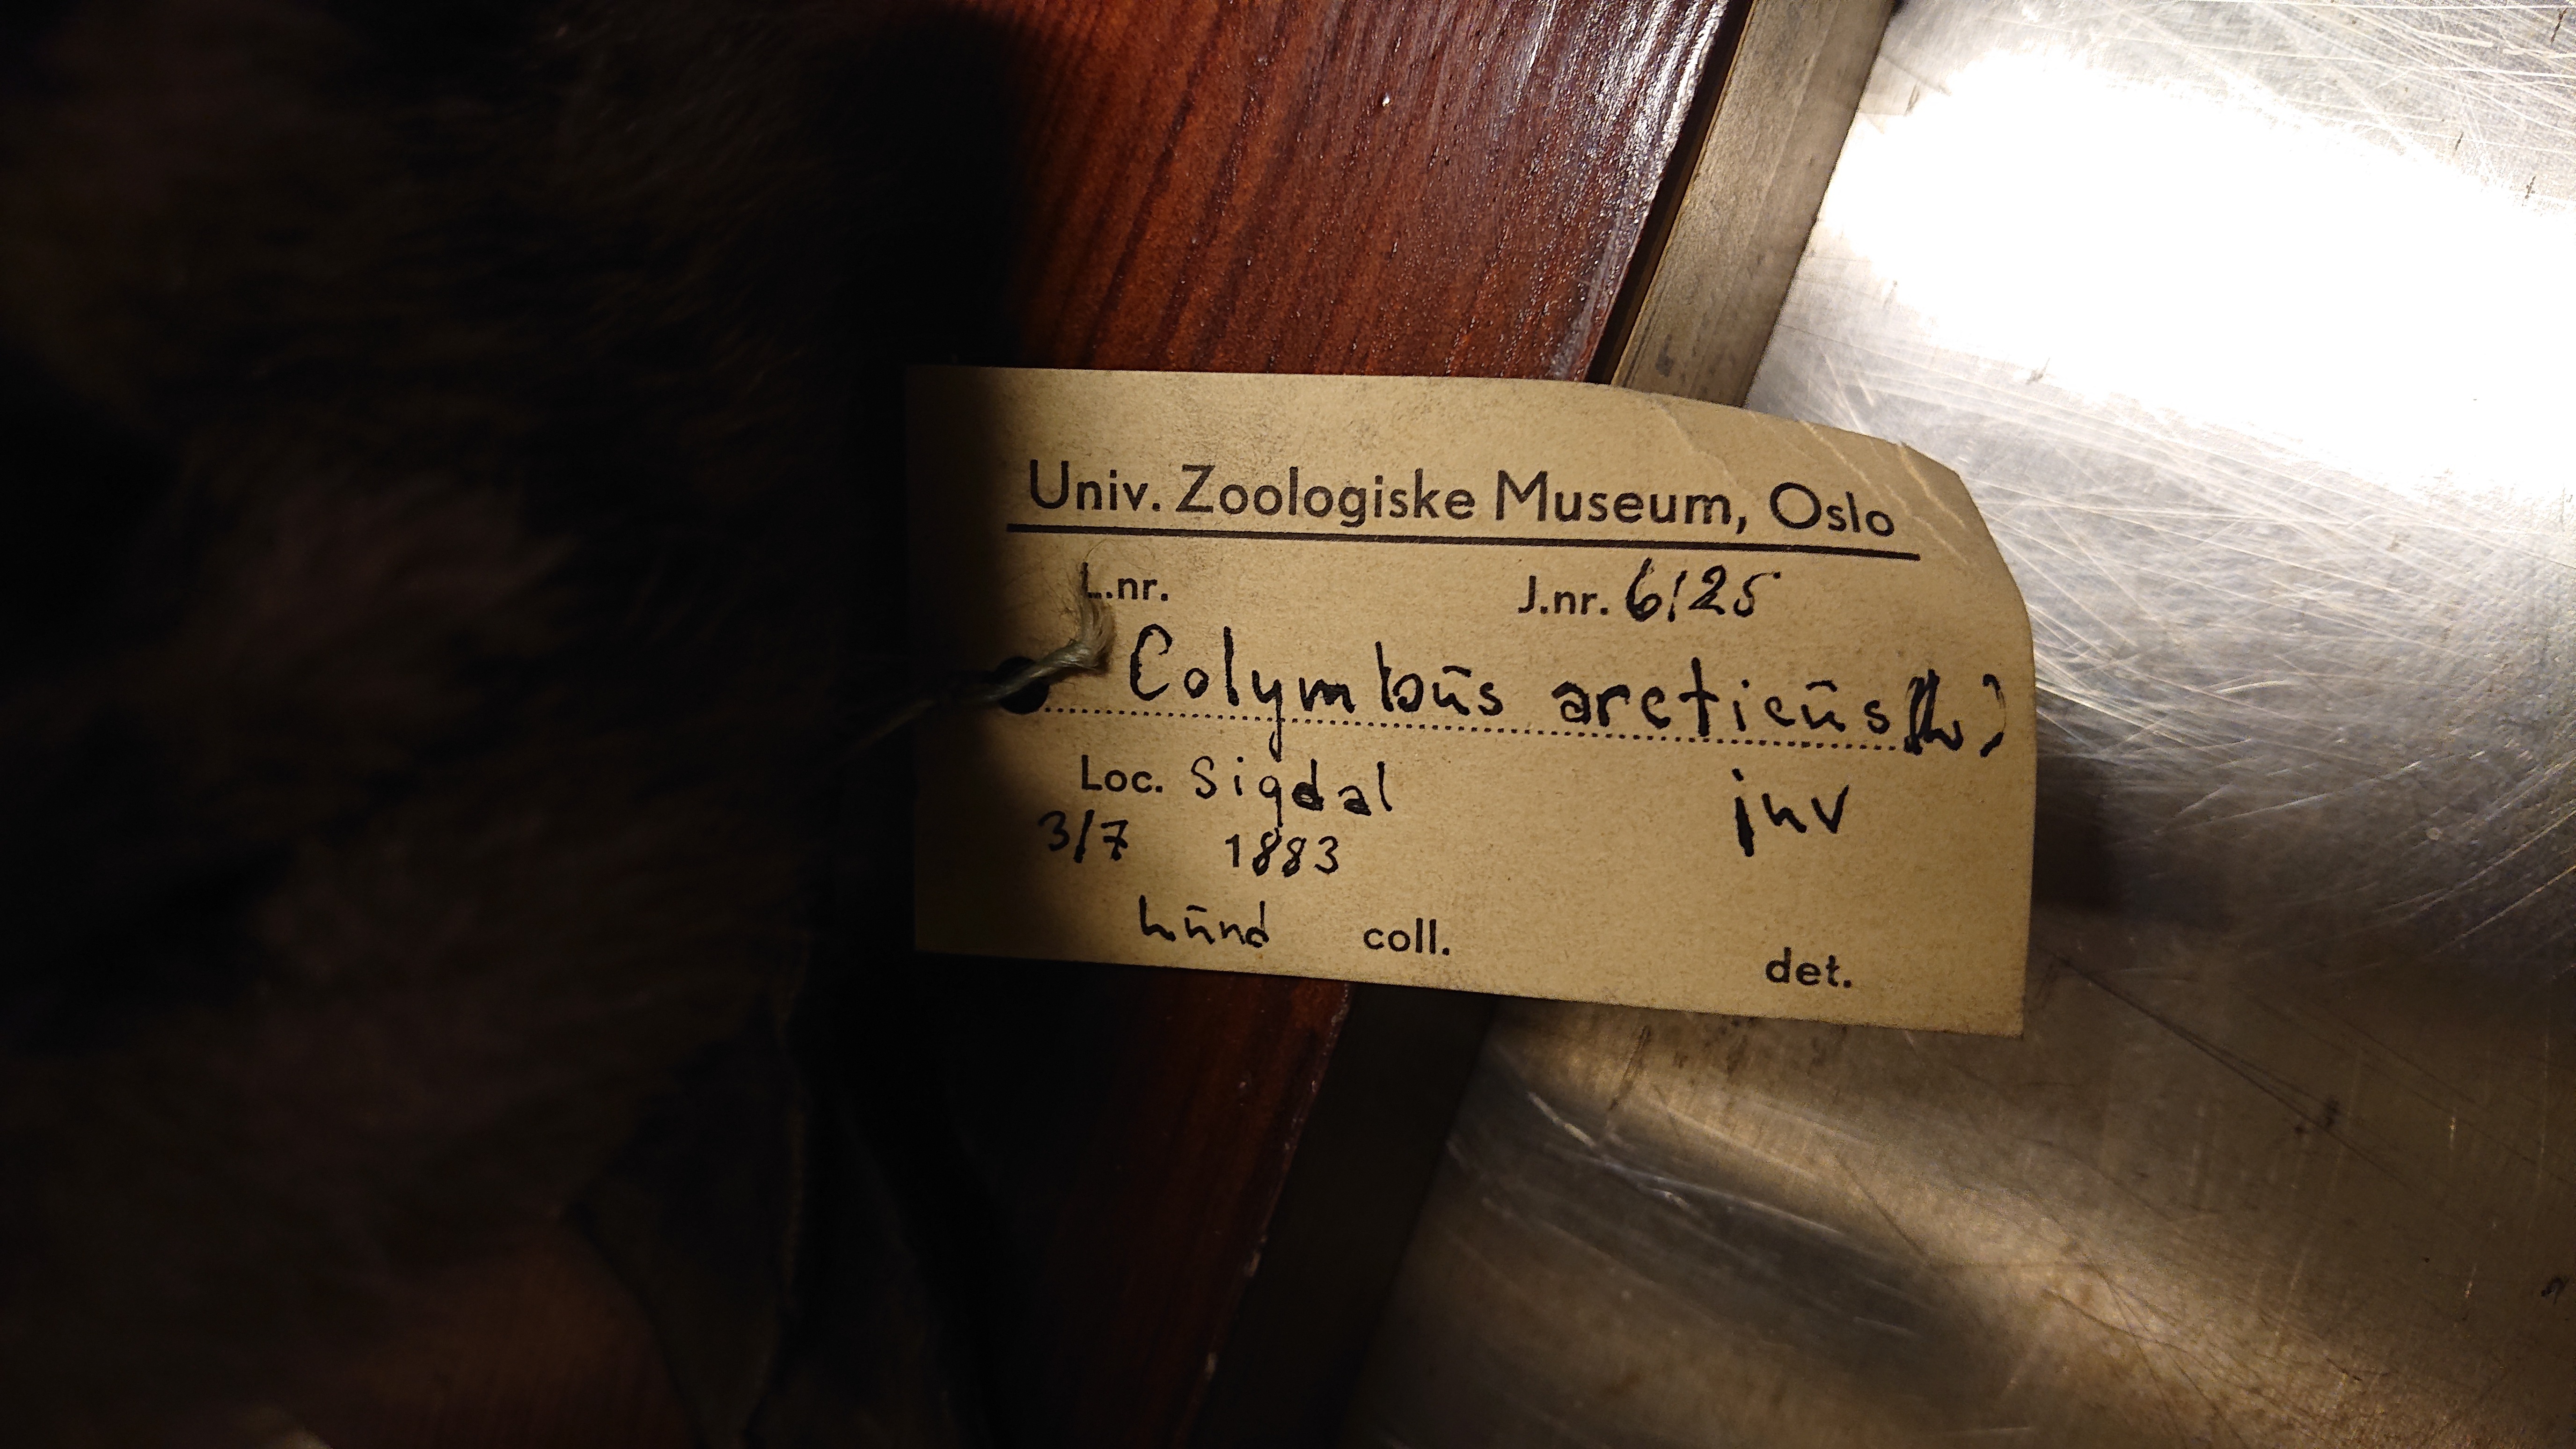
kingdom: Animalia
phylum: Chordata
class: Aves
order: Gaviiformes
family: Gaviidae
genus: Gavia
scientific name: Gavia arctica
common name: Black-throated loon
